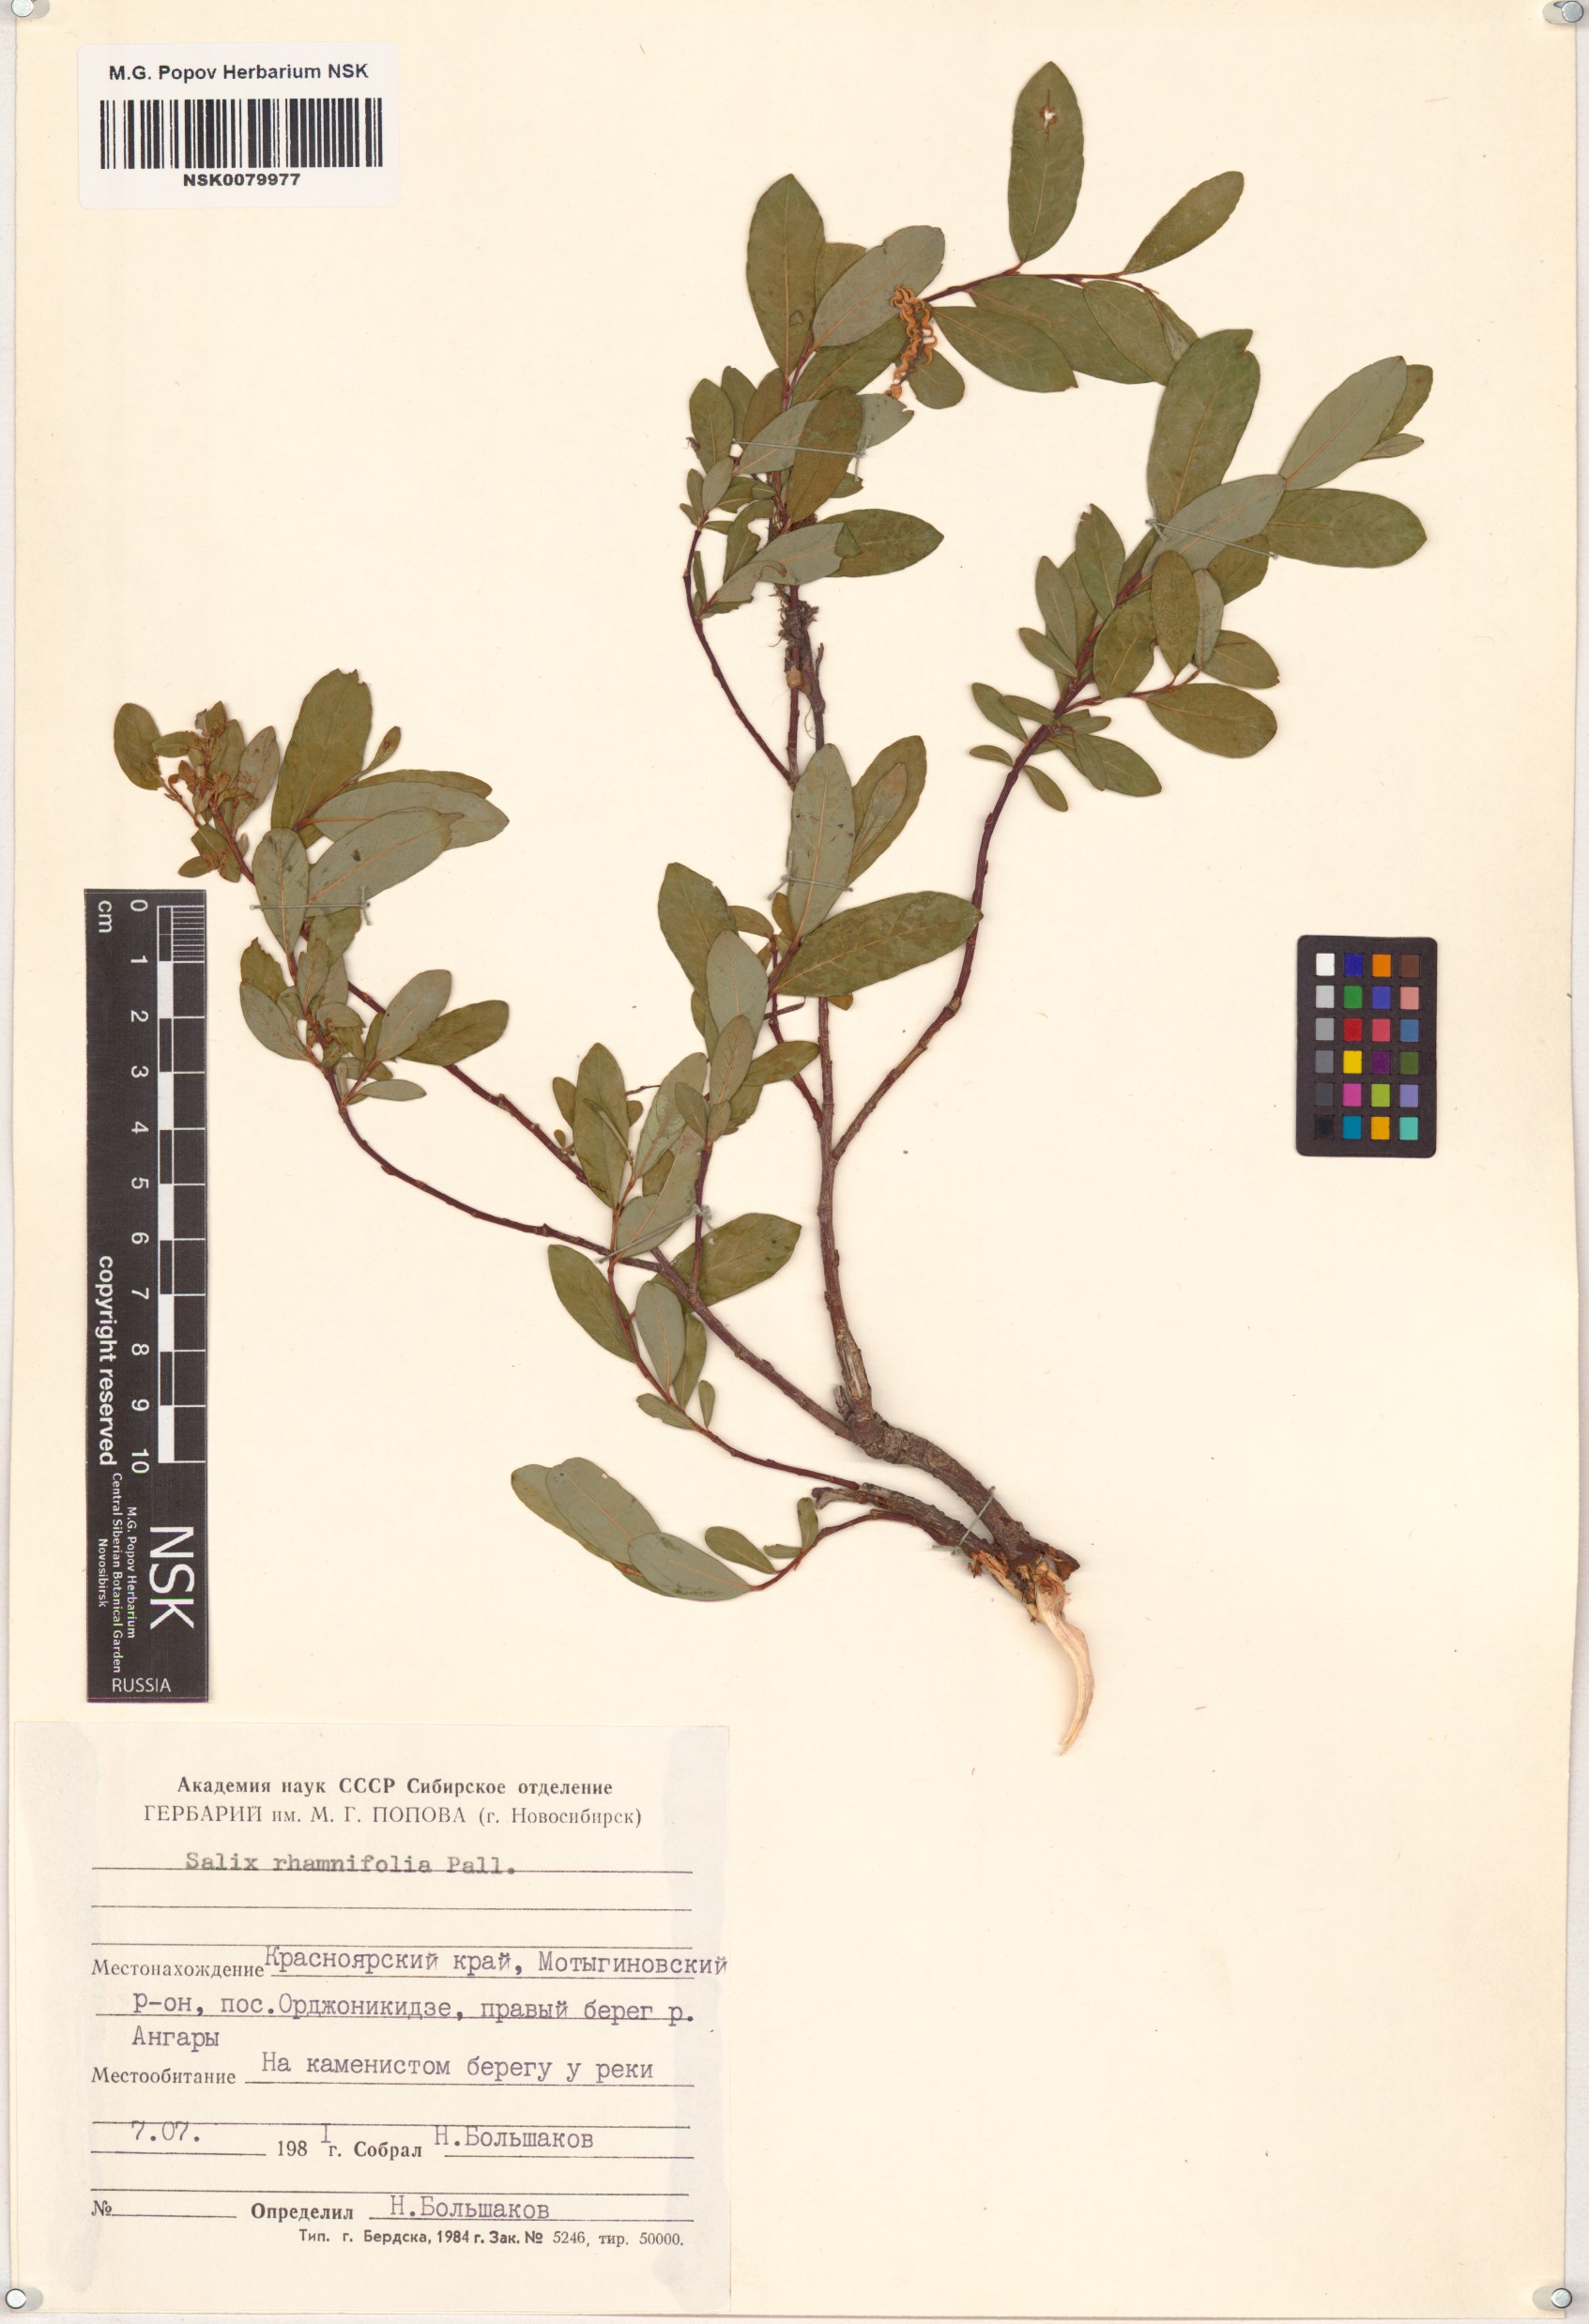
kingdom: Plantae
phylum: Tracheophyta
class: Magnoliopsida
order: Malpighiales
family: Salicaceae
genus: Salix
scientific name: Salix rhamnifolia
